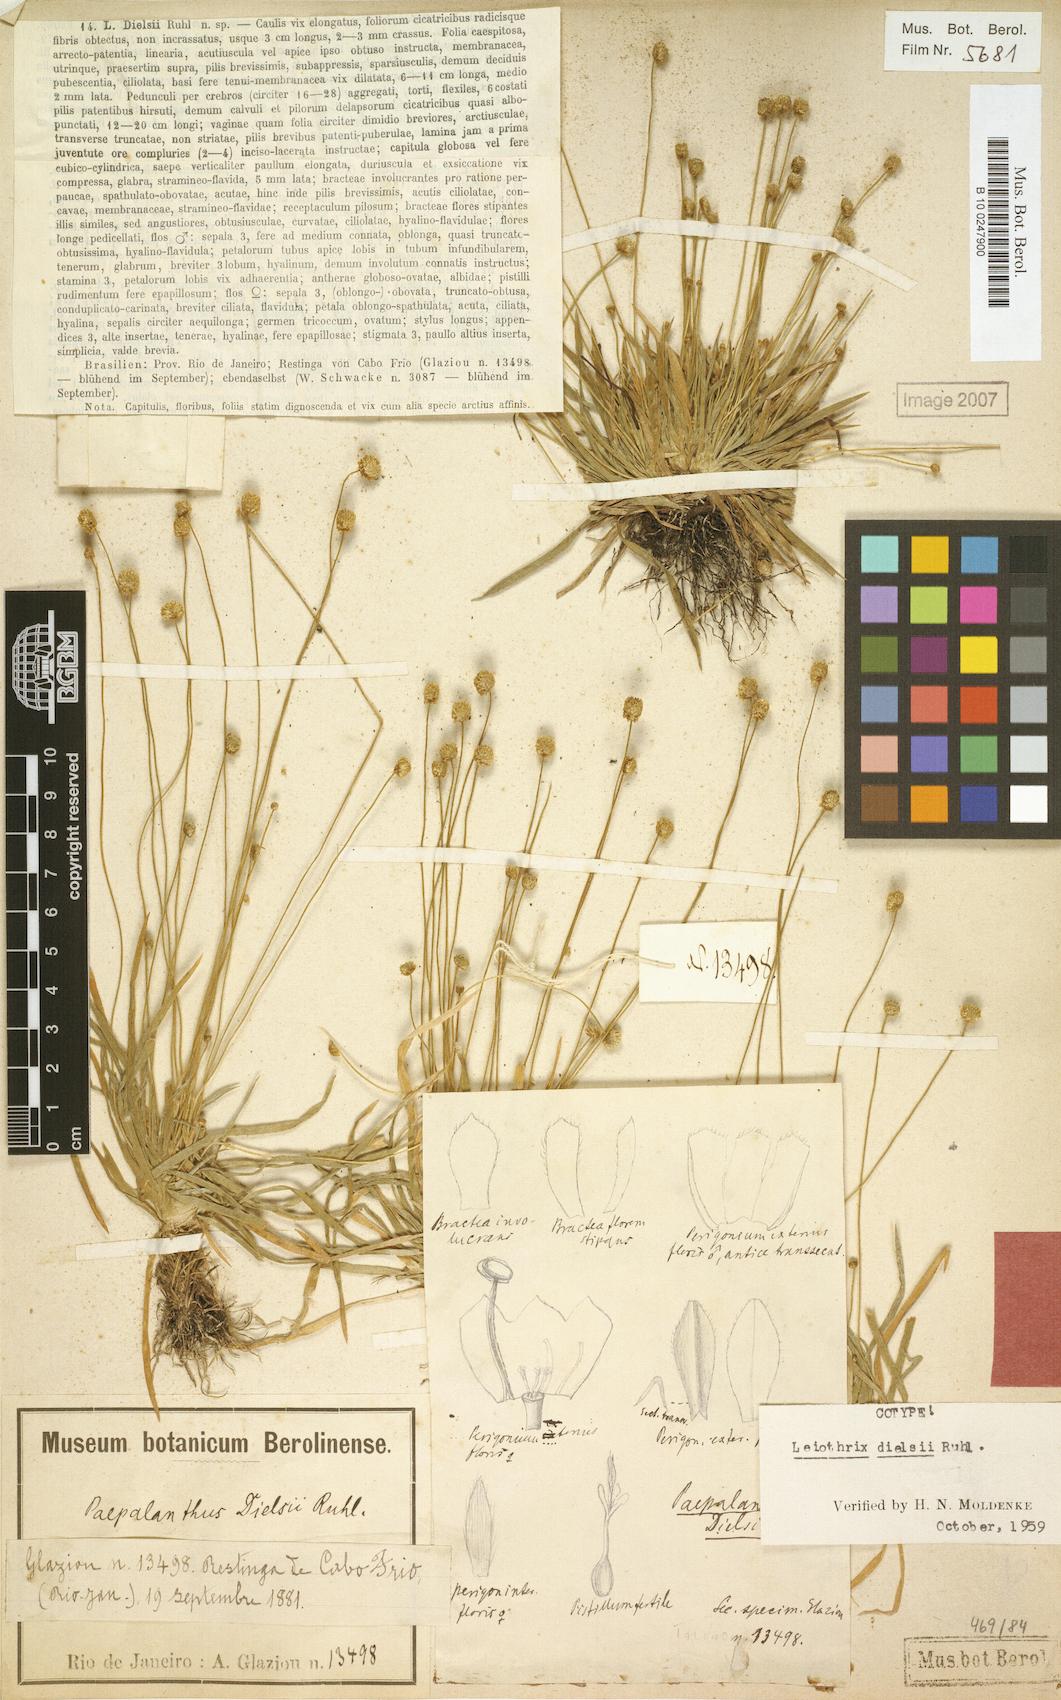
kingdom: Plantae
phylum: Tracheophyta
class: Liliopsida
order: Poales
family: Eriocaulaceae
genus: Leiothrix
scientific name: Leiothrix rufula
